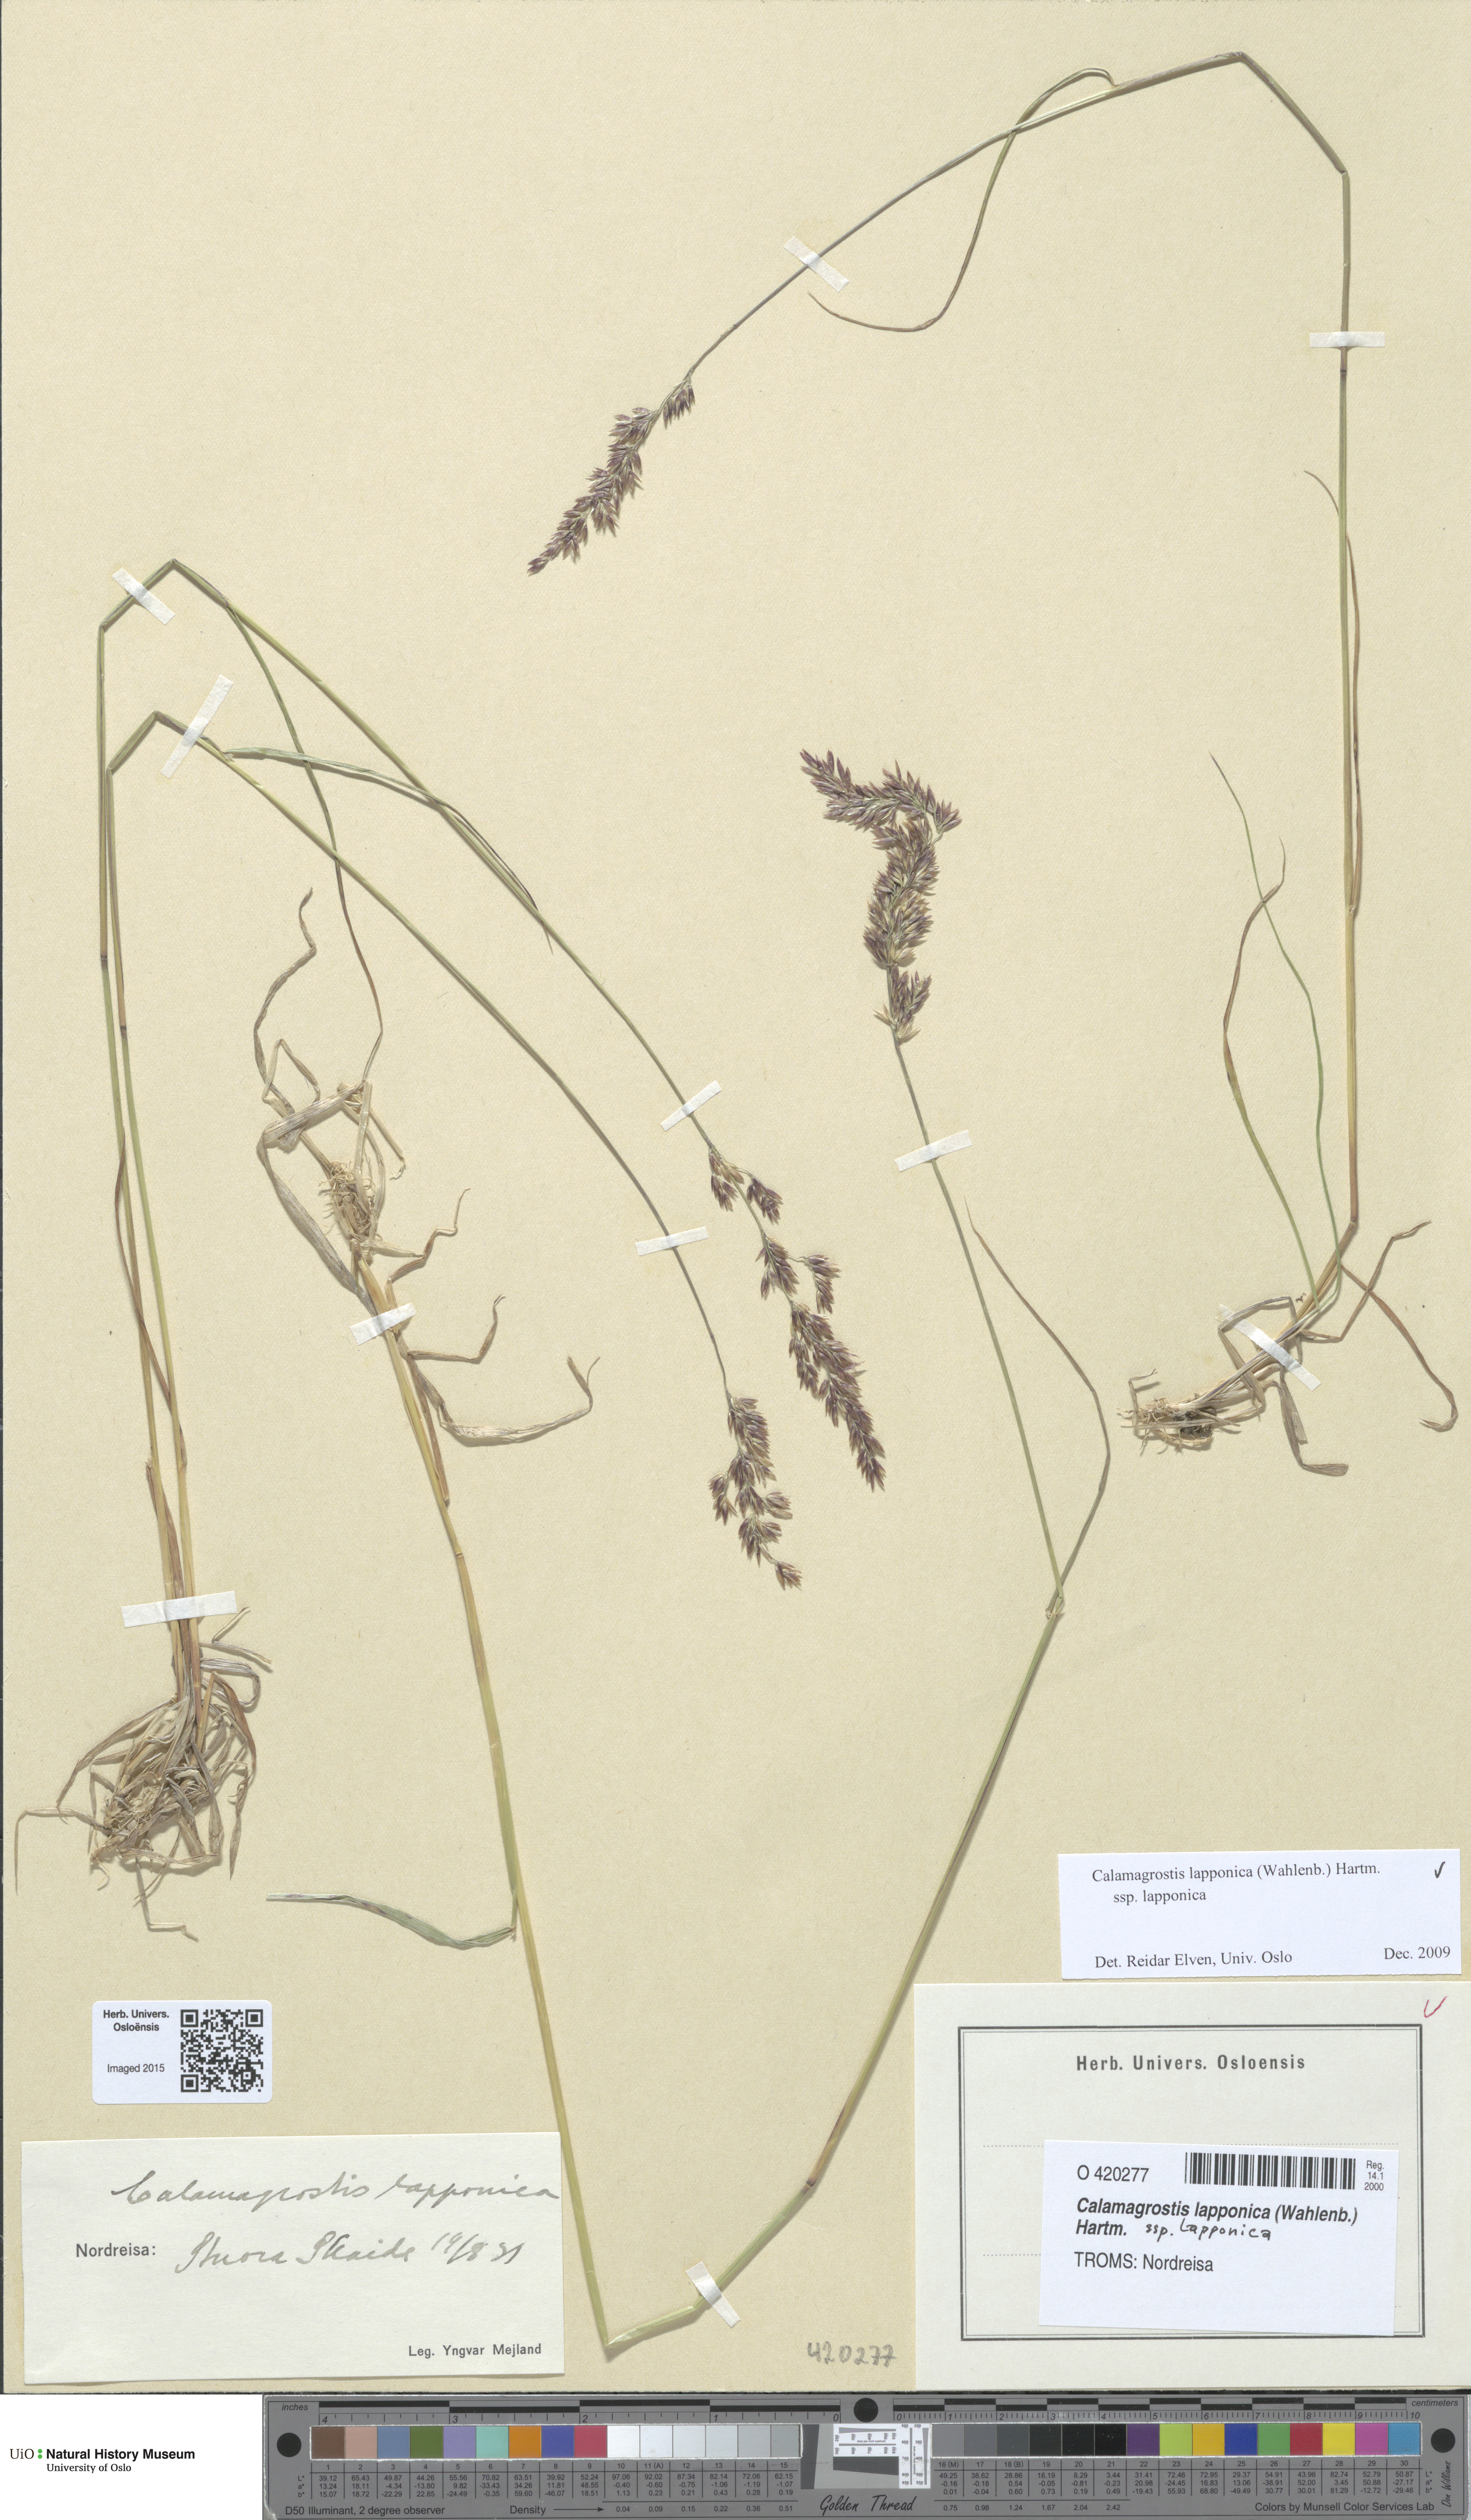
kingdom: Plantae
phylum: Tracheophyta
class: Liliopsida
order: Poales
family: Poaceae
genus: Calamagrostis
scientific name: Calamagrostis lapponica
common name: Lapland reedgrass
